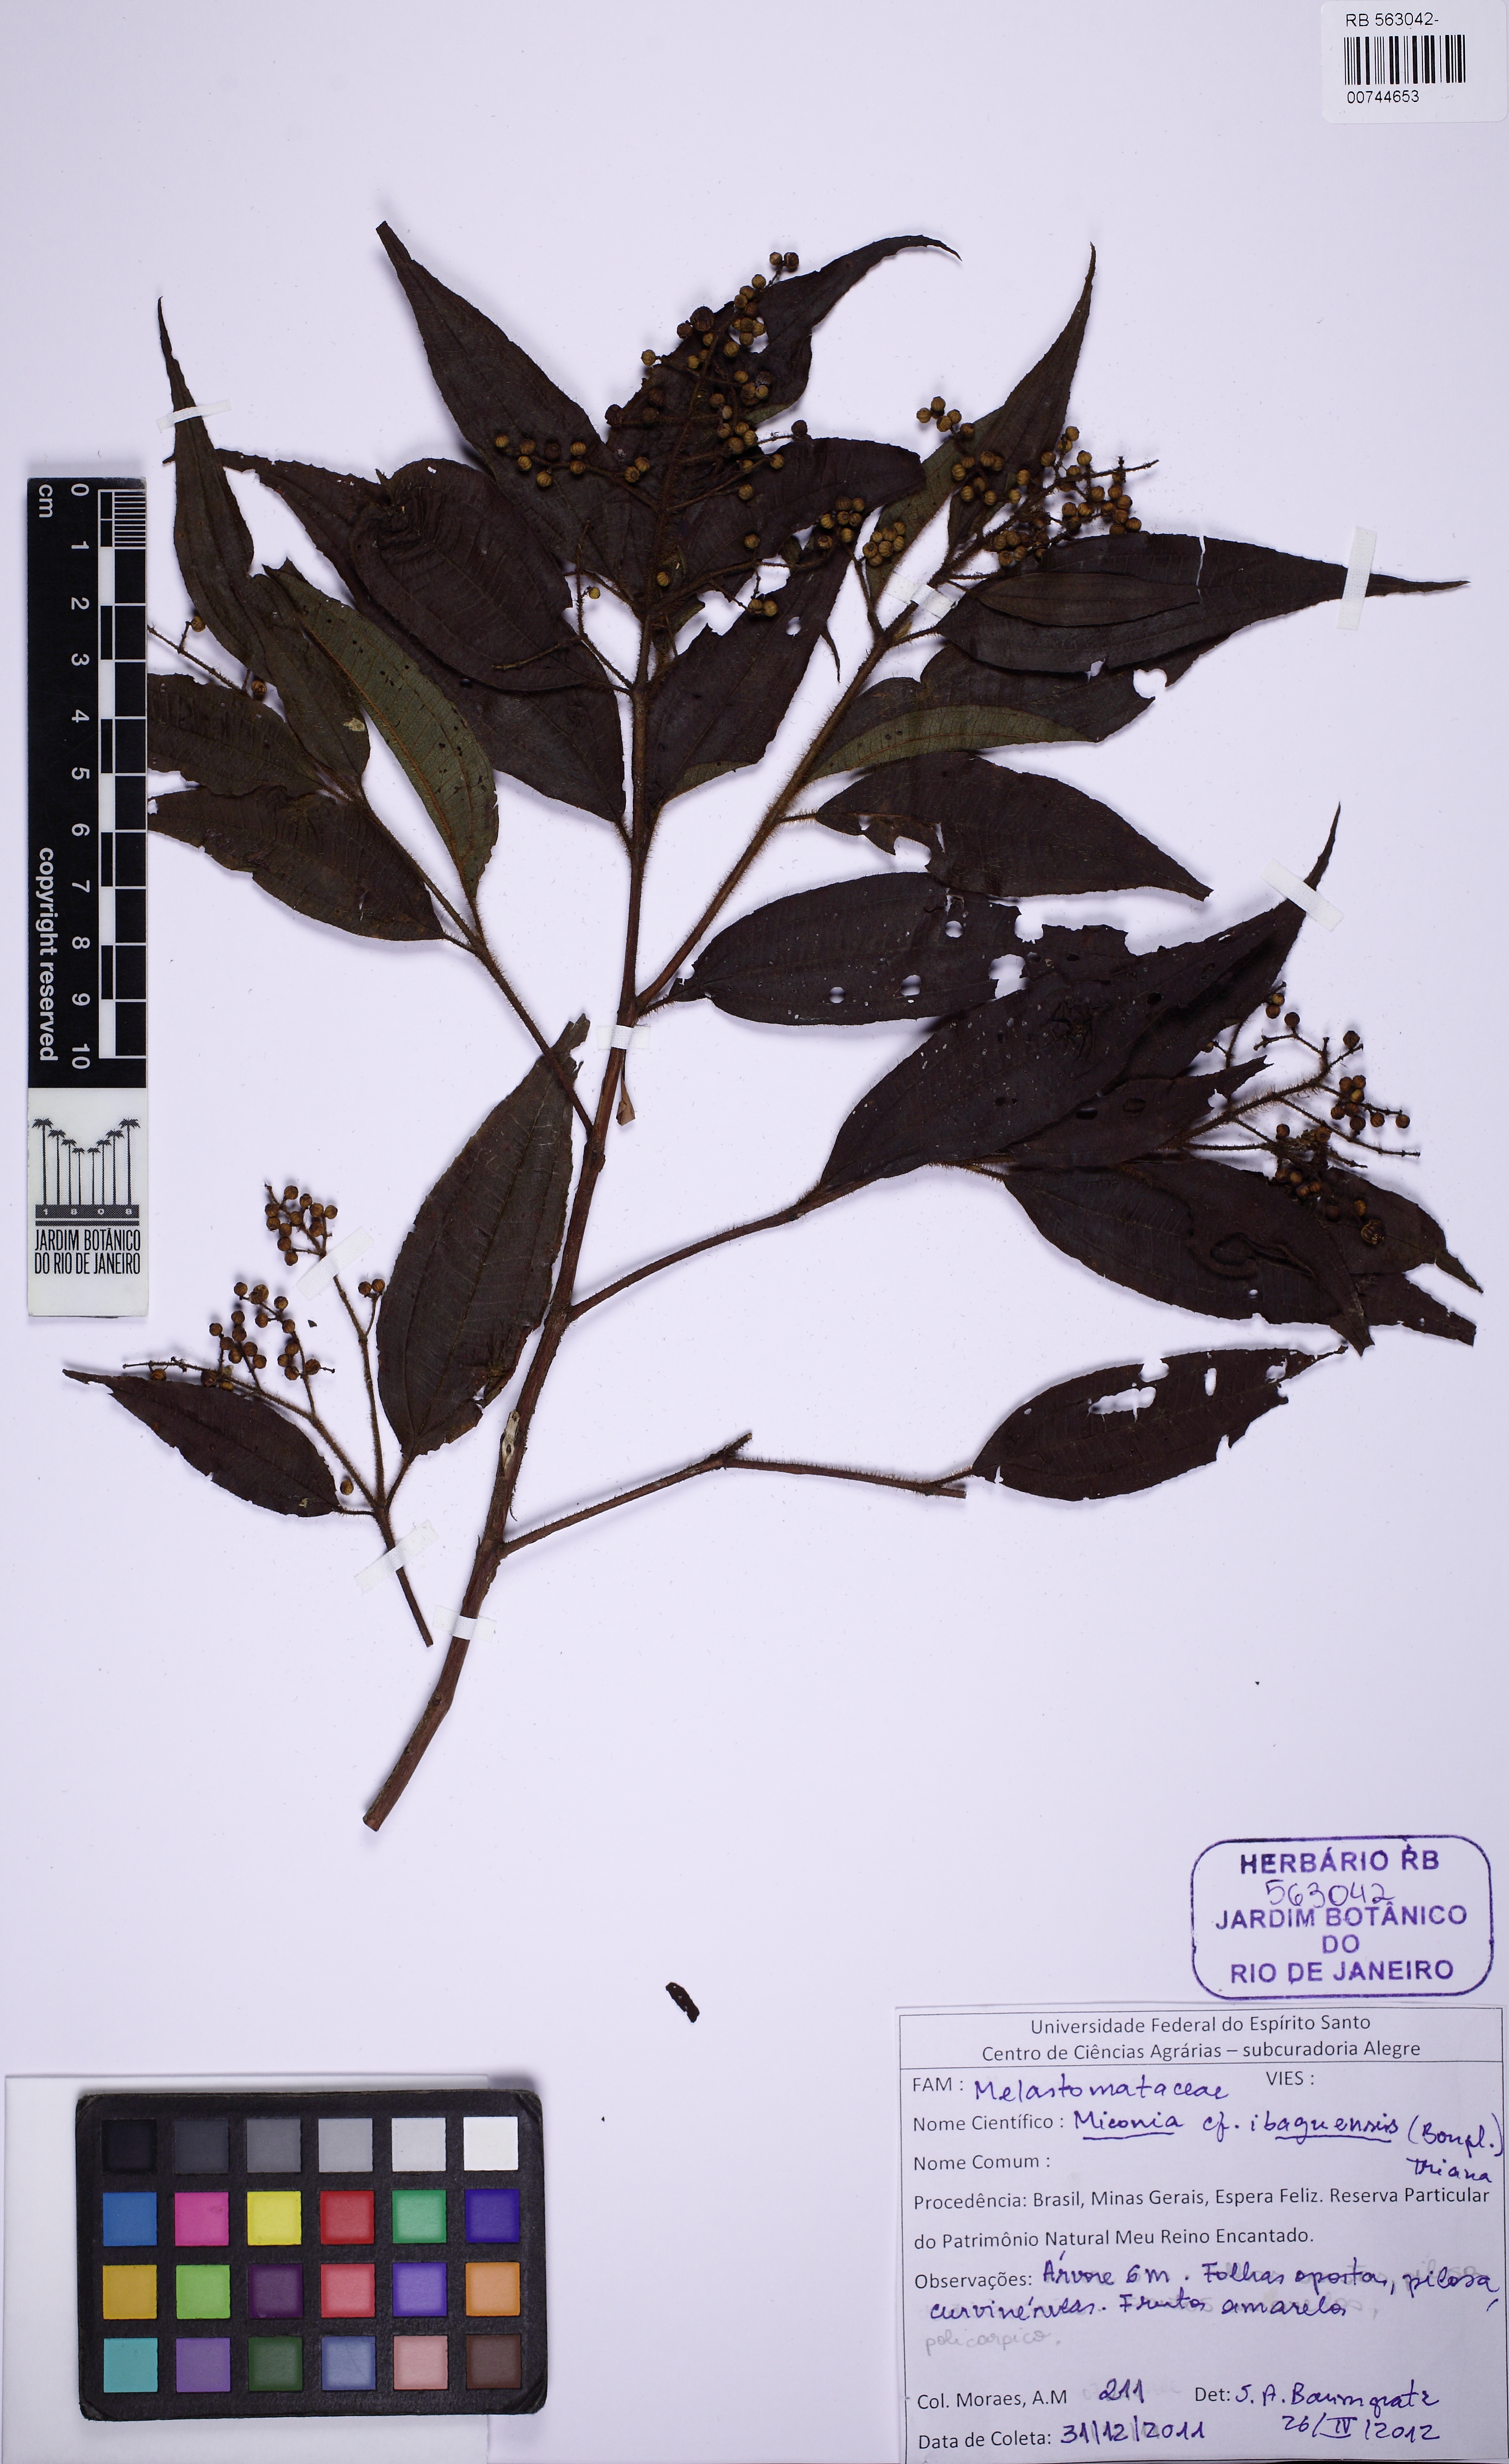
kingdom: Plantae
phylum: Tracheophyta
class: Magnoliopsida
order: Myrtales
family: Melastomataceae
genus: Miconia
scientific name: Miconia ibaguensis
